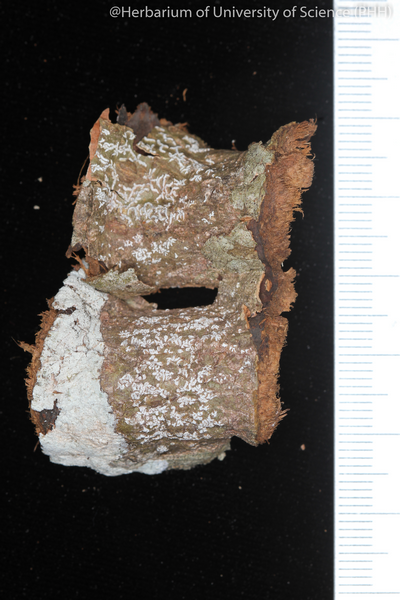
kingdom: Fungi
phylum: Ascomycota
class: Lecanoromycetes
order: Ostropales
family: Graphidaceae
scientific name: Graphidaceae
